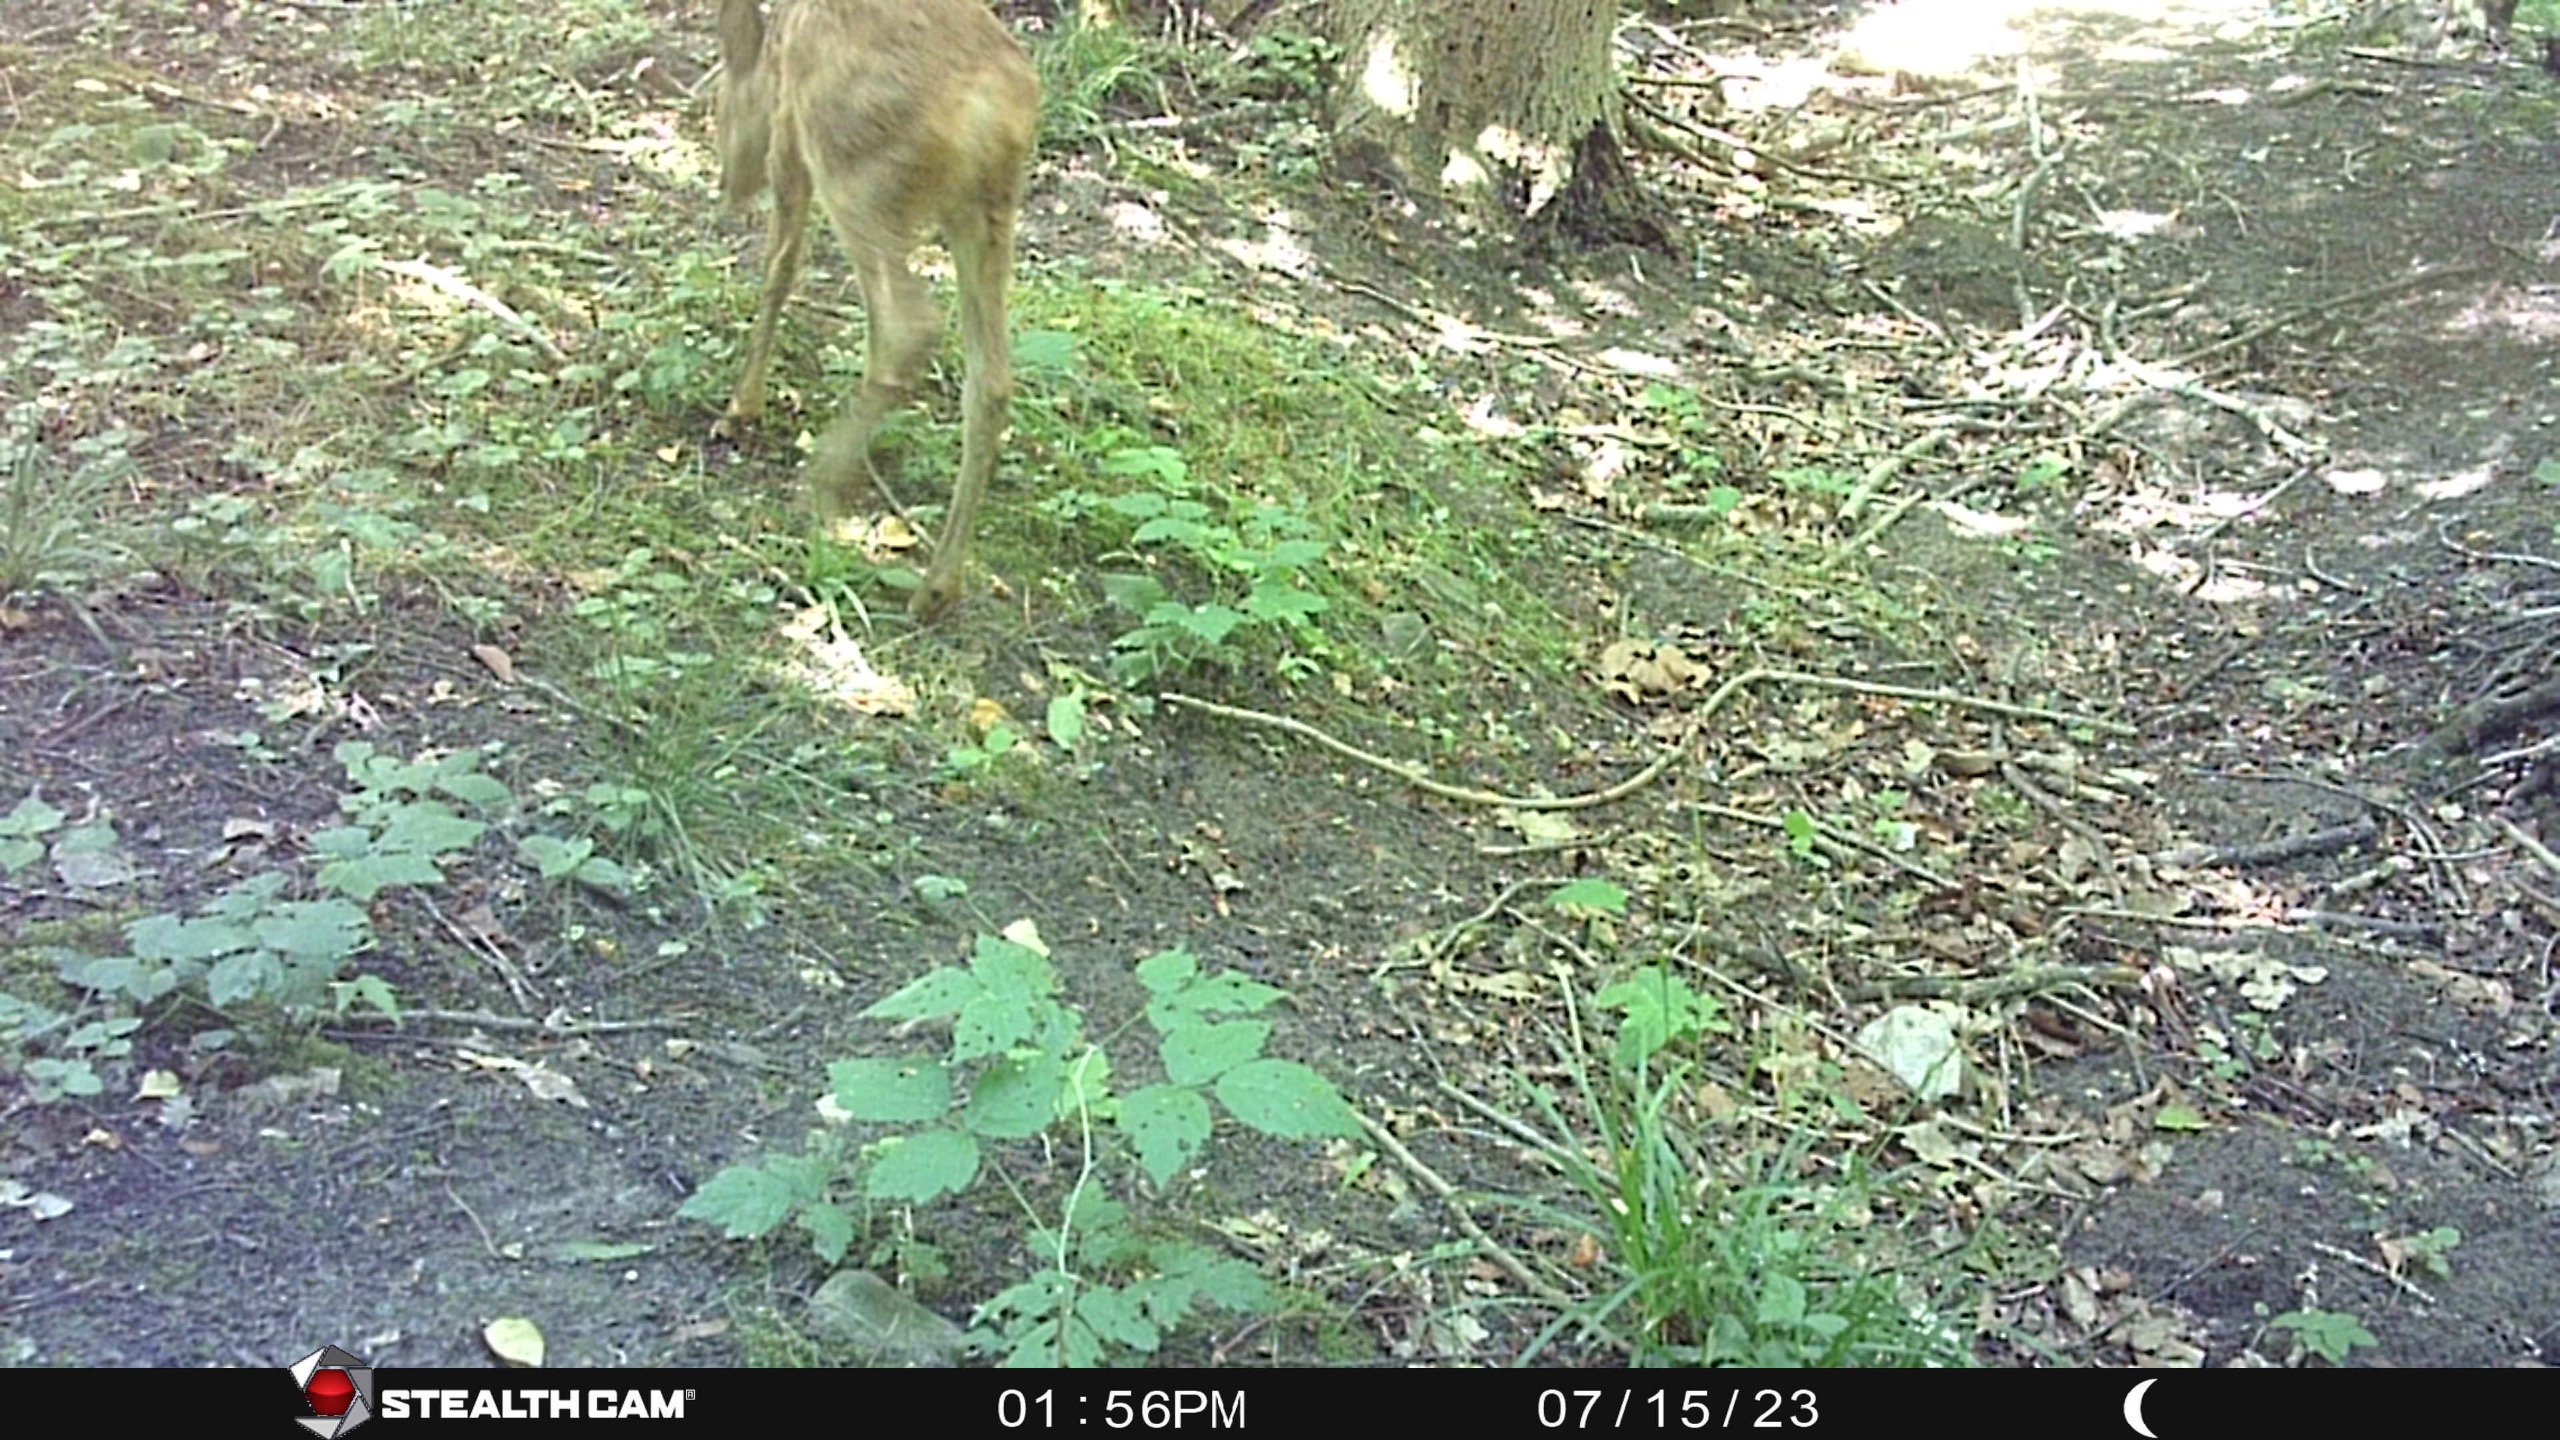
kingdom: Animalia
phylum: Chordata
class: Mammalia
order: Artiodactyla
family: Cervidae
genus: Capreolus
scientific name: Capreolus capreolus
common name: Rådyr
